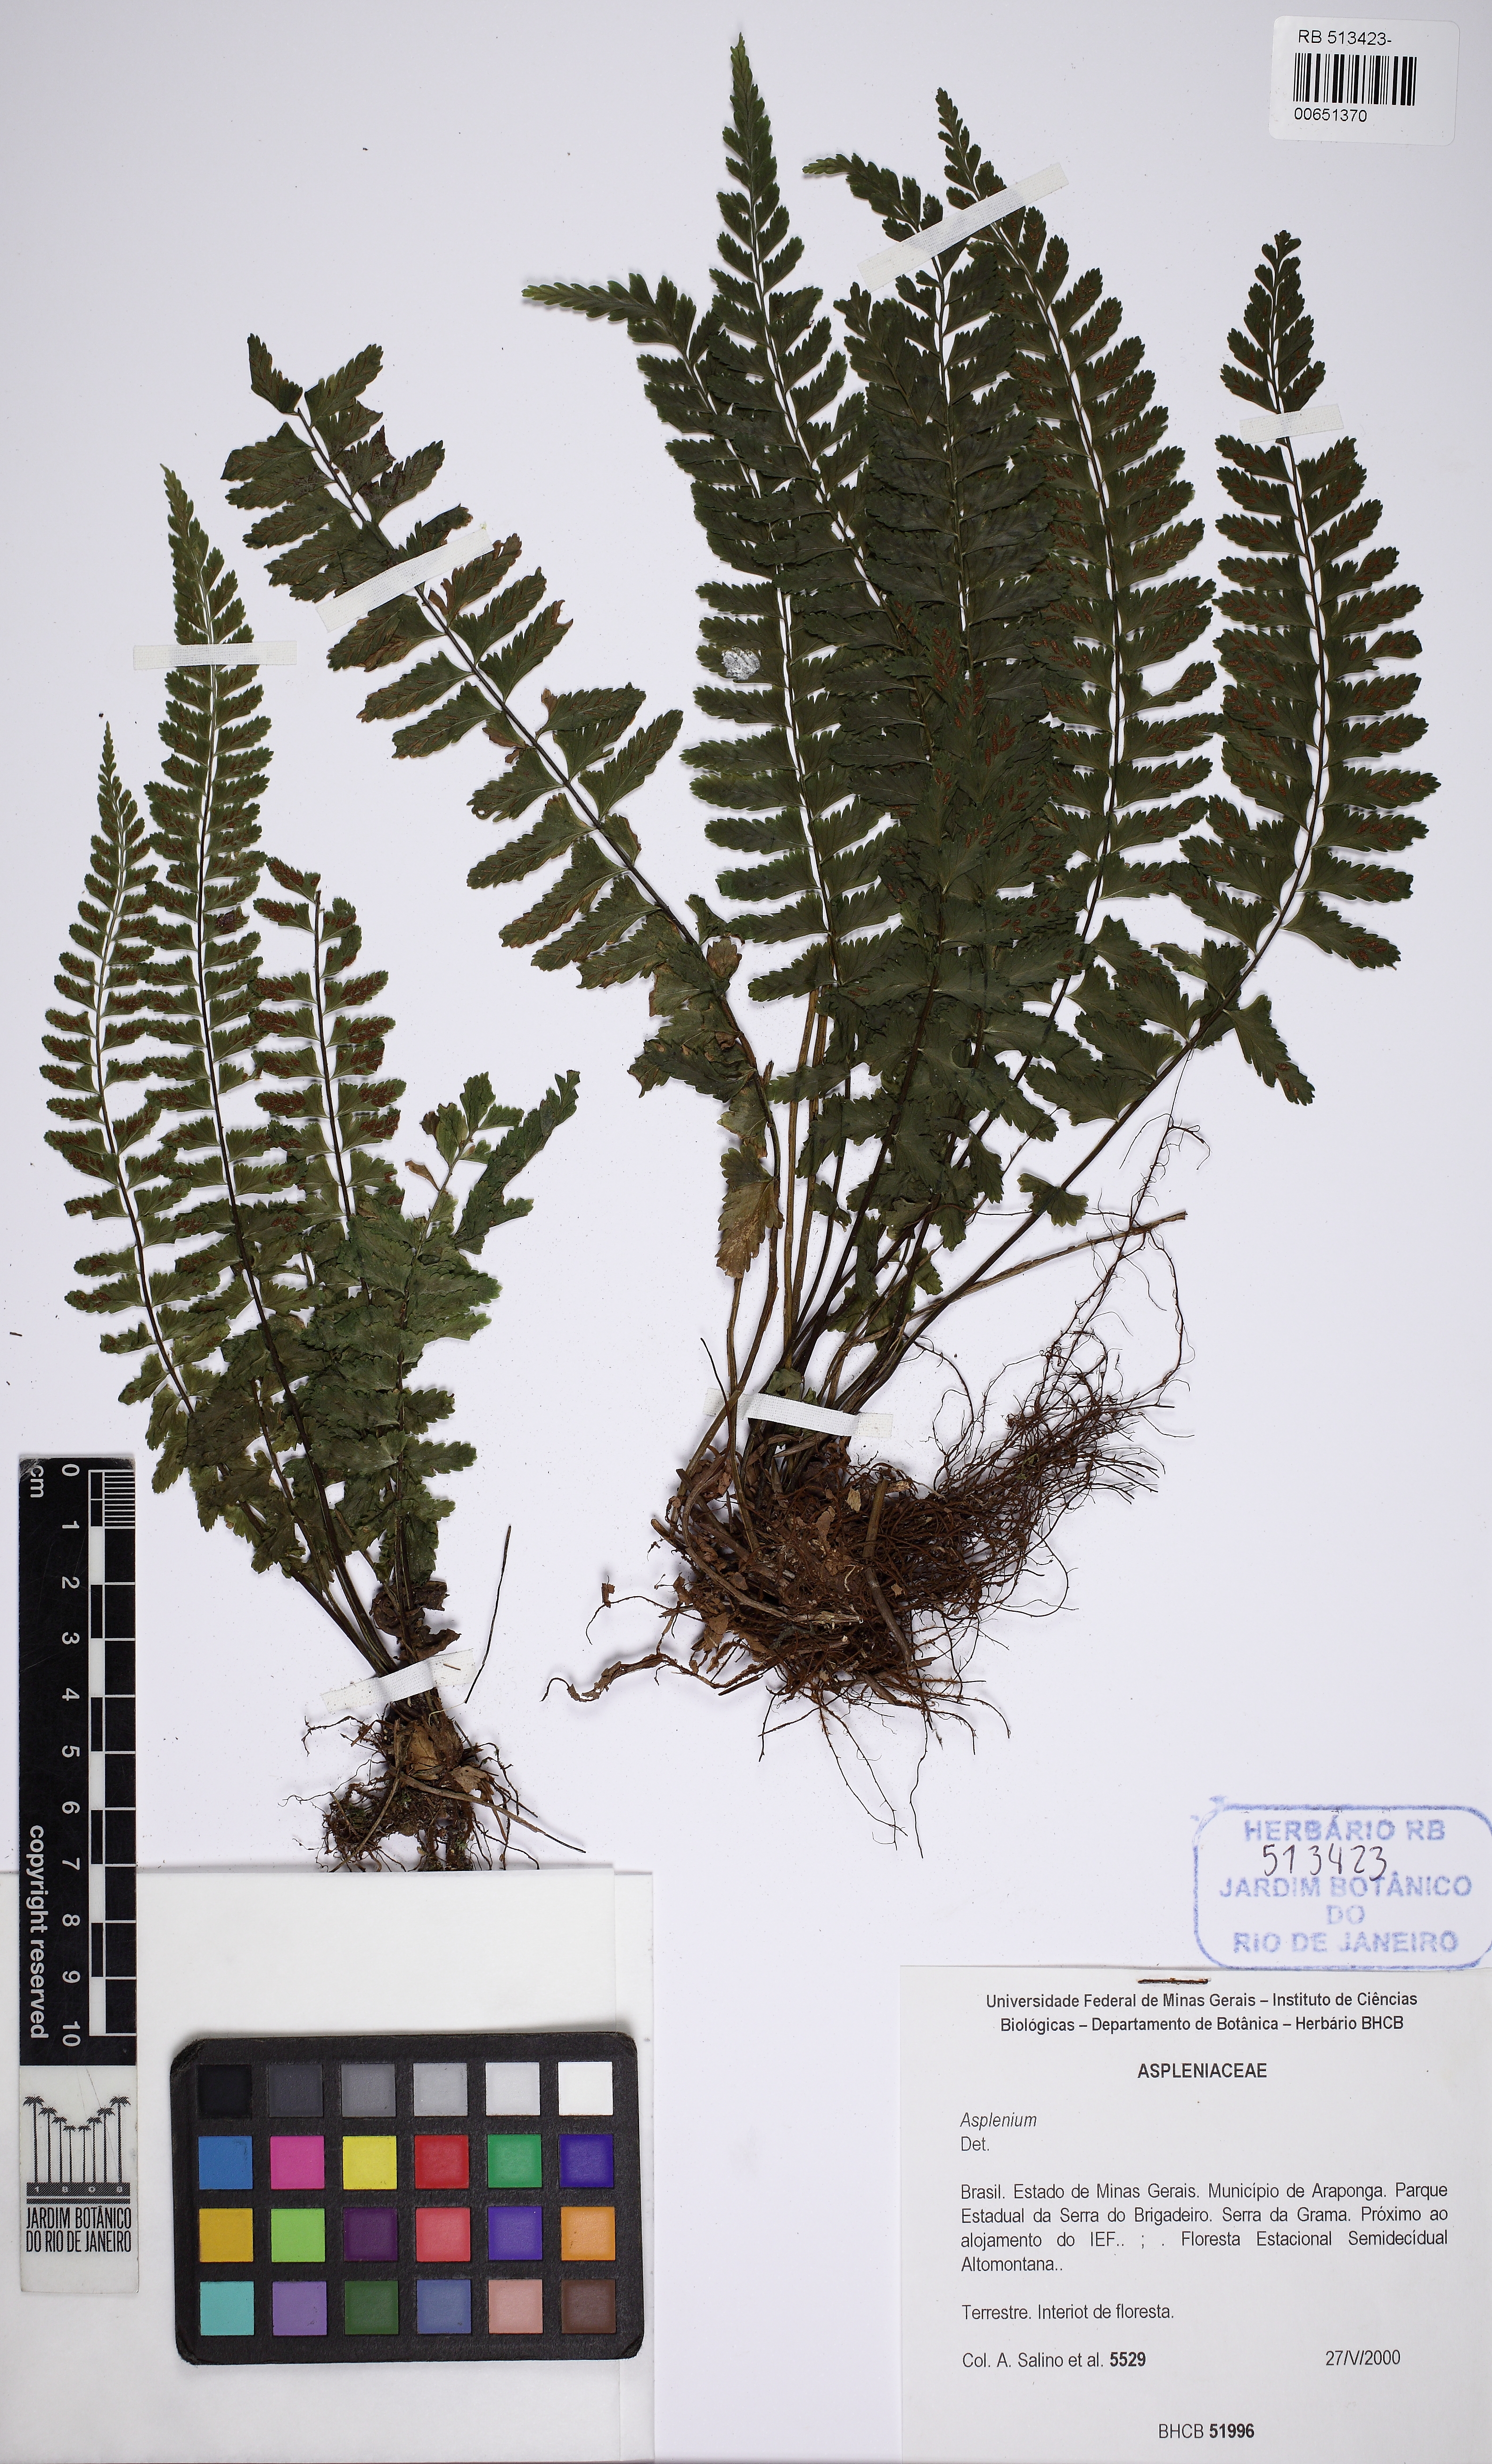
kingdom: Plantae
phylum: Tracheophyta
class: Polypodiopsida
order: Polypodiales
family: Aspleniaceae
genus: Asplenium
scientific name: Asplenium
